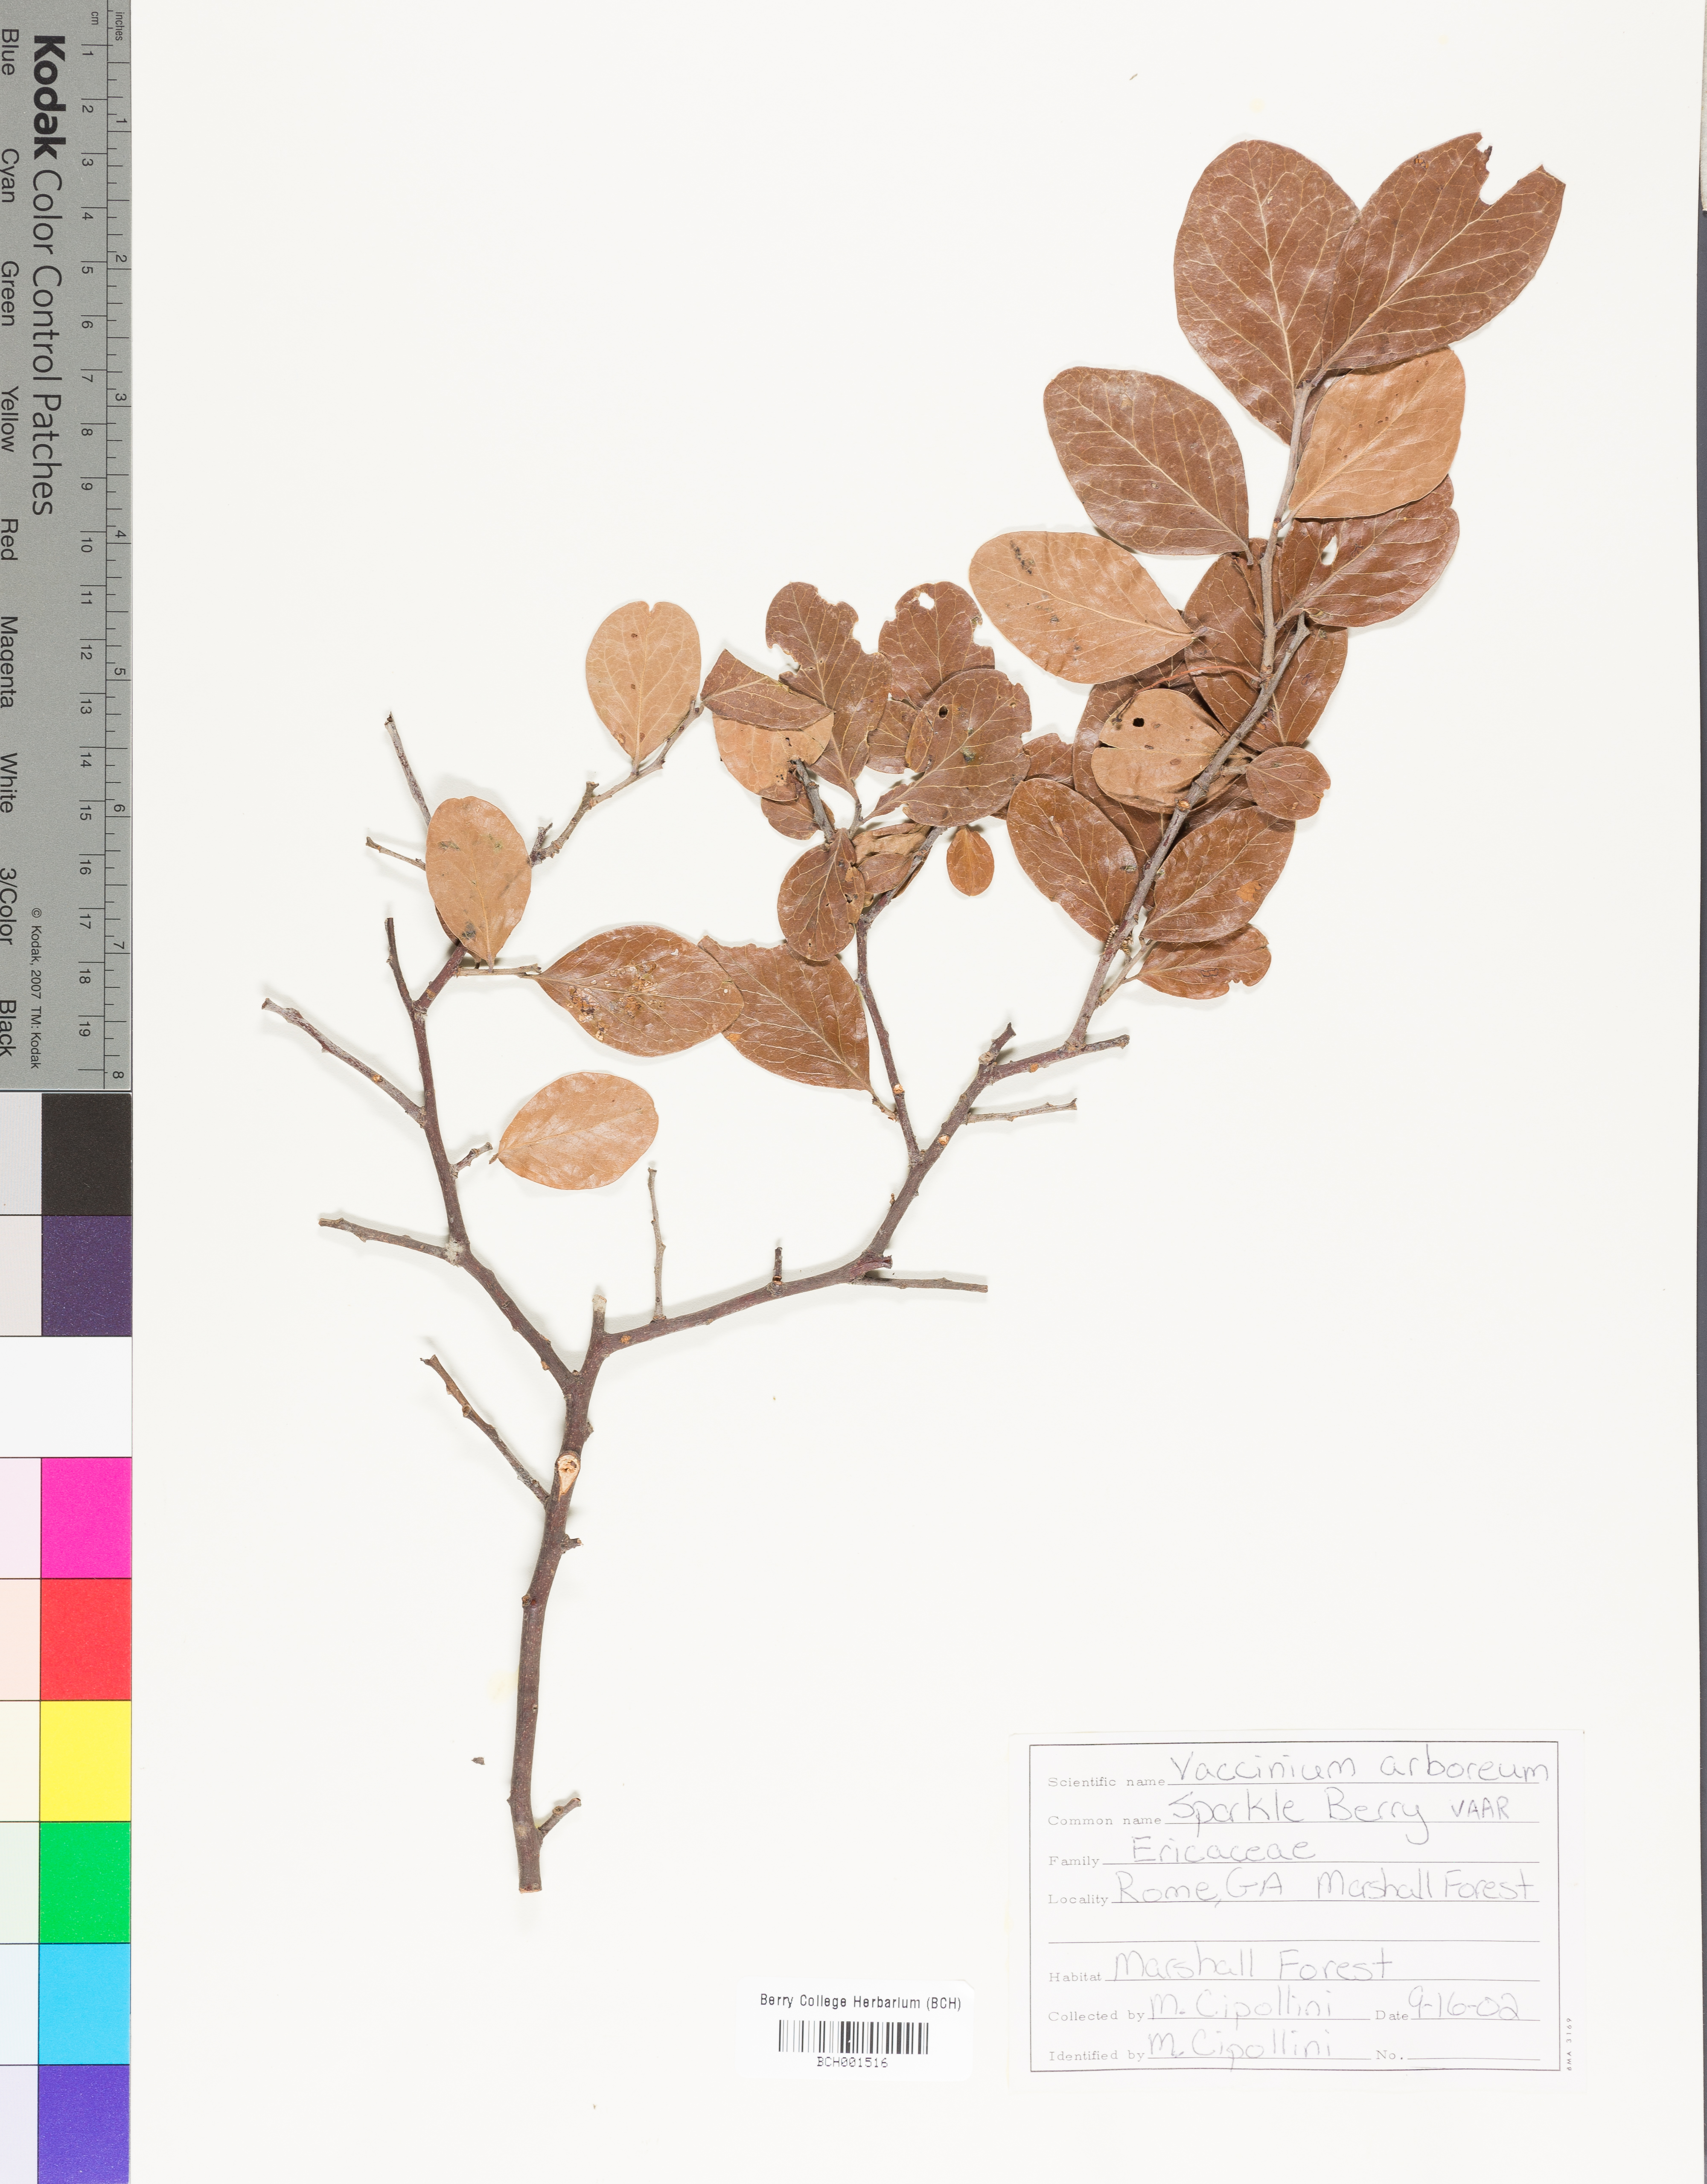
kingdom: Plantae
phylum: Tracheophyta
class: Magnoliopsida
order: Ericales
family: Ericaceae
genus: Vaccinium
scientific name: Vaccinium arboreum
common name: Farkleberry
